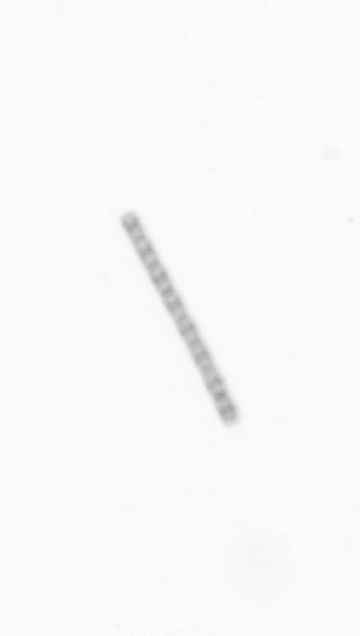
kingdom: Chromista
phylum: Ochrophyta
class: Bacillariophyceae
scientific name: Bacillariophyceae
